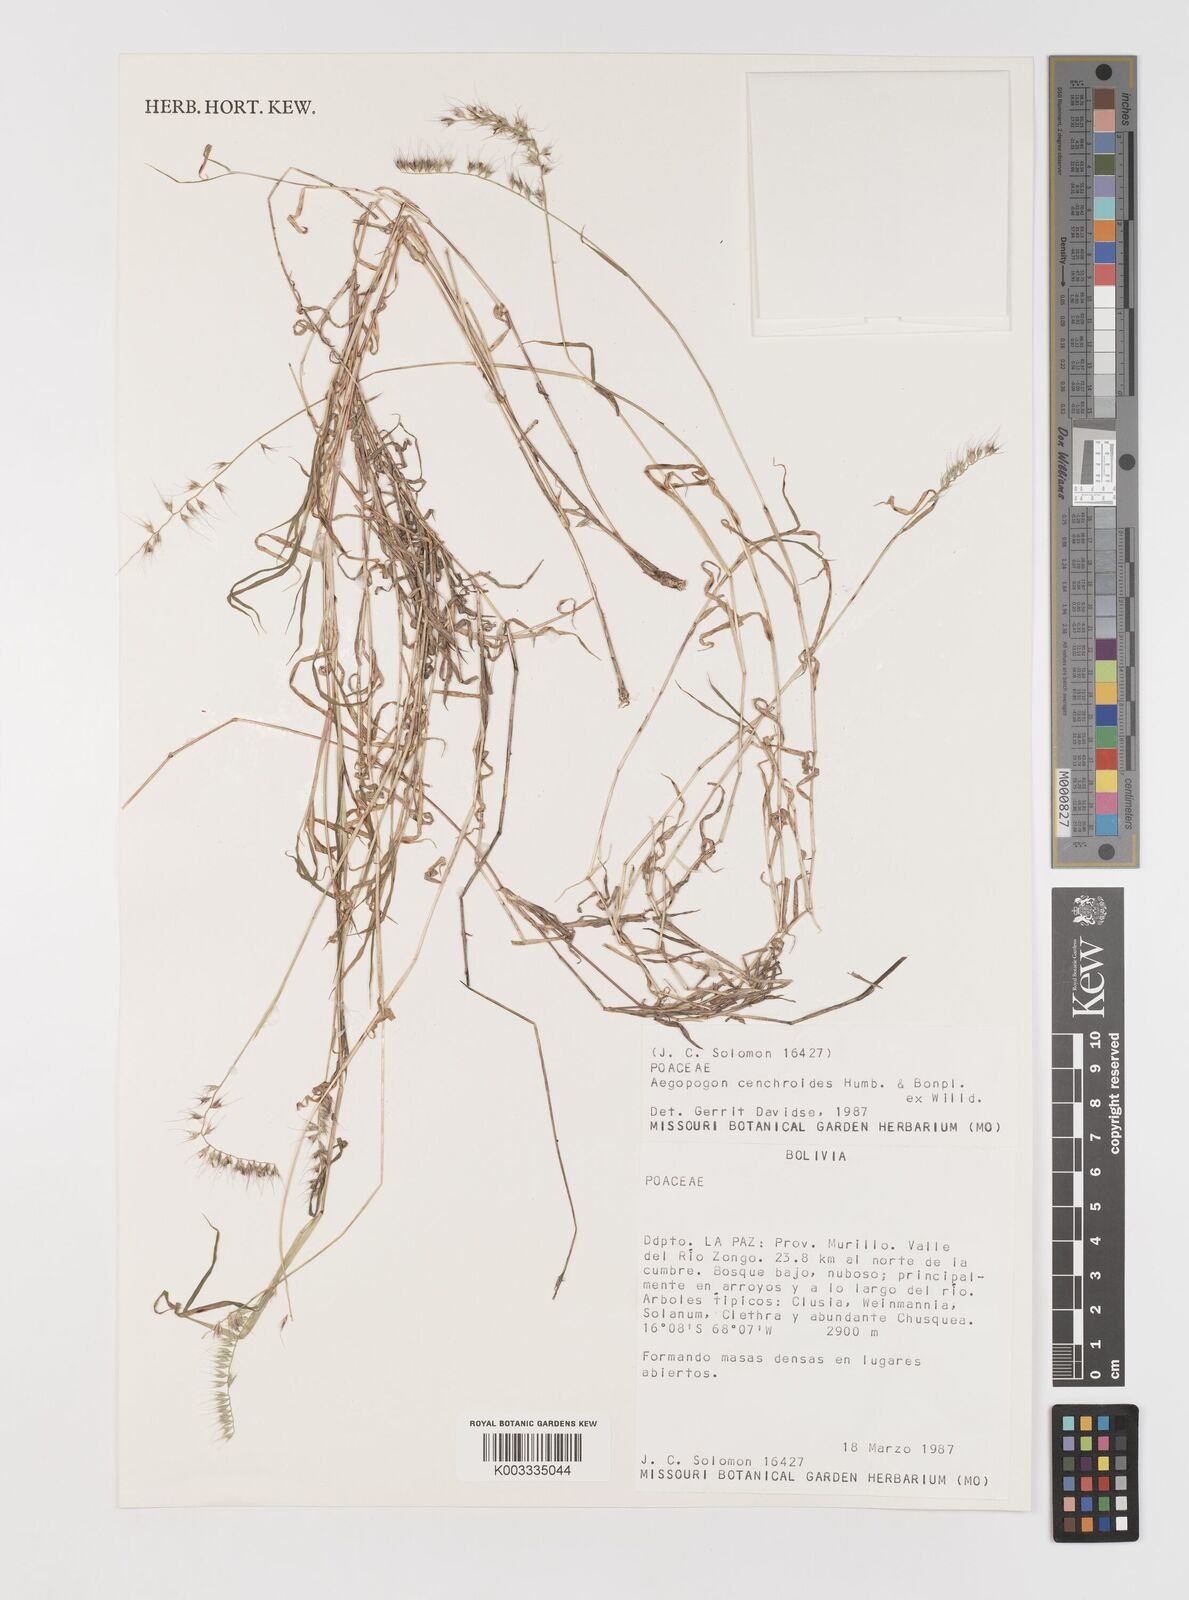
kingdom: Plantae
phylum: Tracheophyta
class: Liliopsida
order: Poales
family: Poaceae
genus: Muhlenbergia
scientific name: Muhlenbergia cenchroides
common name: Relaxgrass
